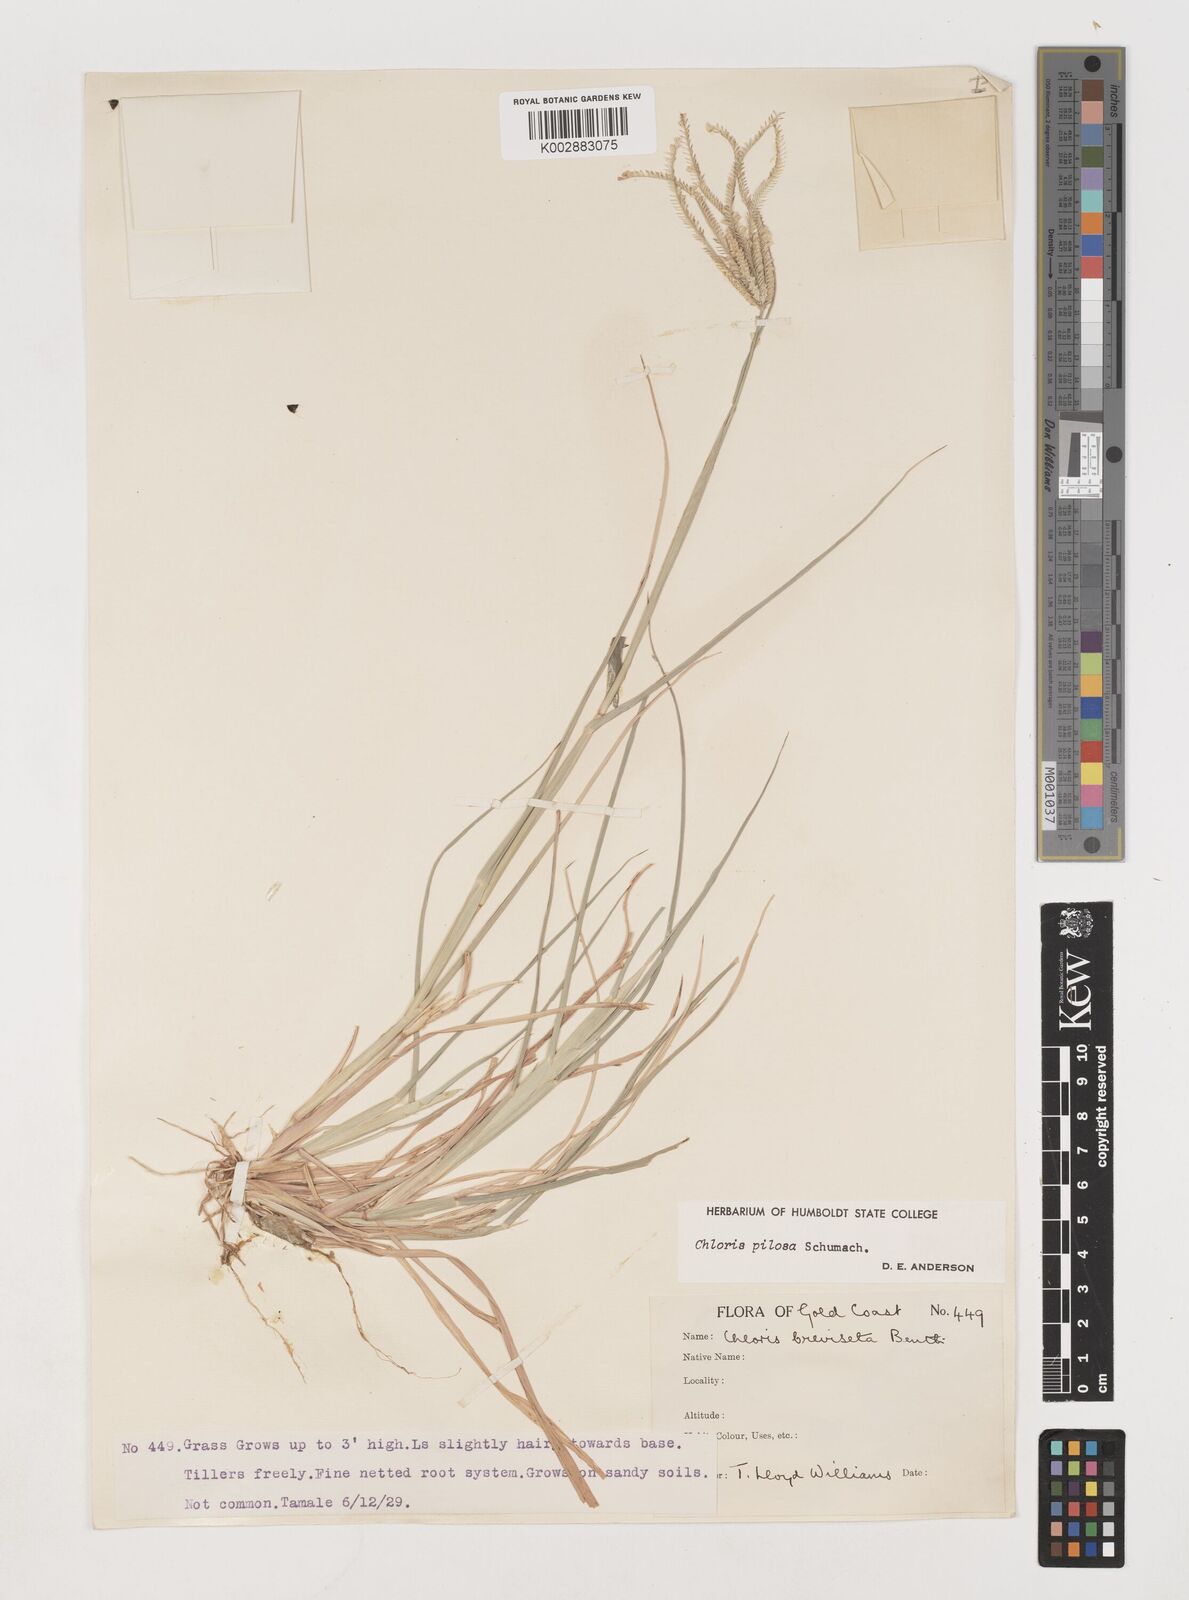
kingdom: Plantae
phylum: Tracheophyta
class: Liliopsida
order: Poales
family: Poaceae
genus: Chloris
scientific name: Chloris pilosa
